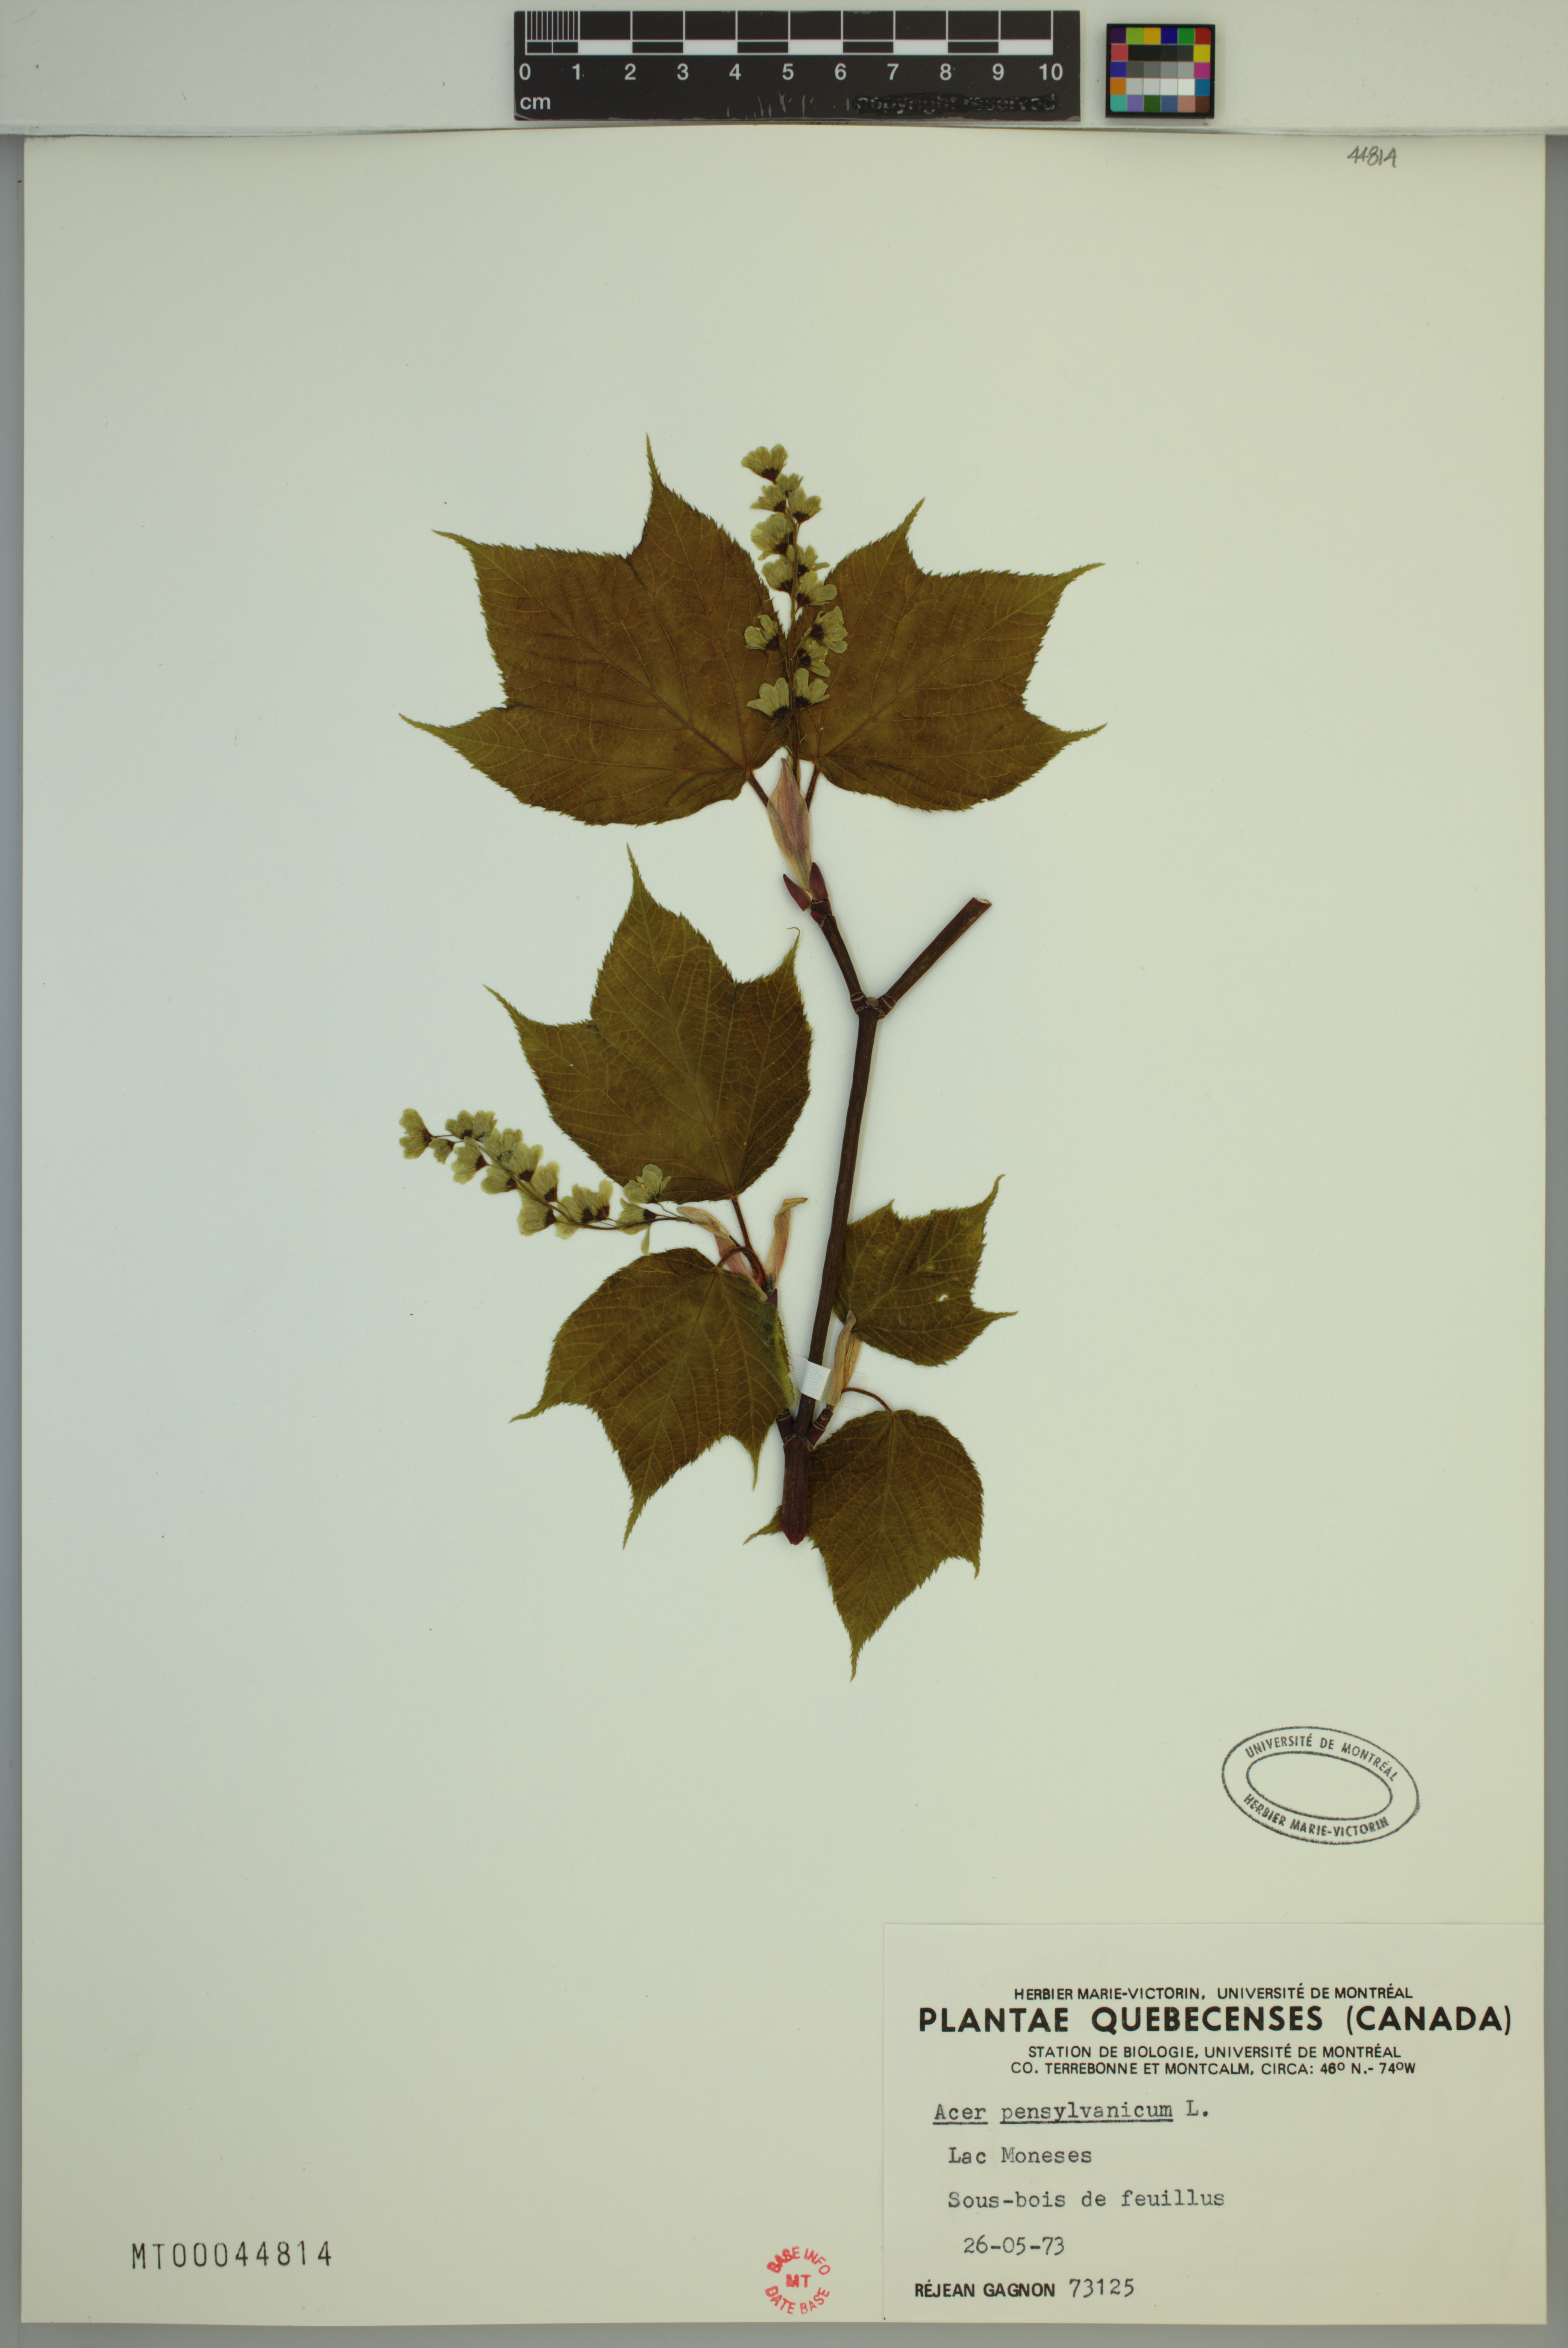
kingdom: Plantae
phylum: Tracheophyta
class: Magnoliopsida
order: Sapindales
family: Sapindaceae
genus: Acer
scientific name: Acer pensylvanicum
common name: Moosewood
